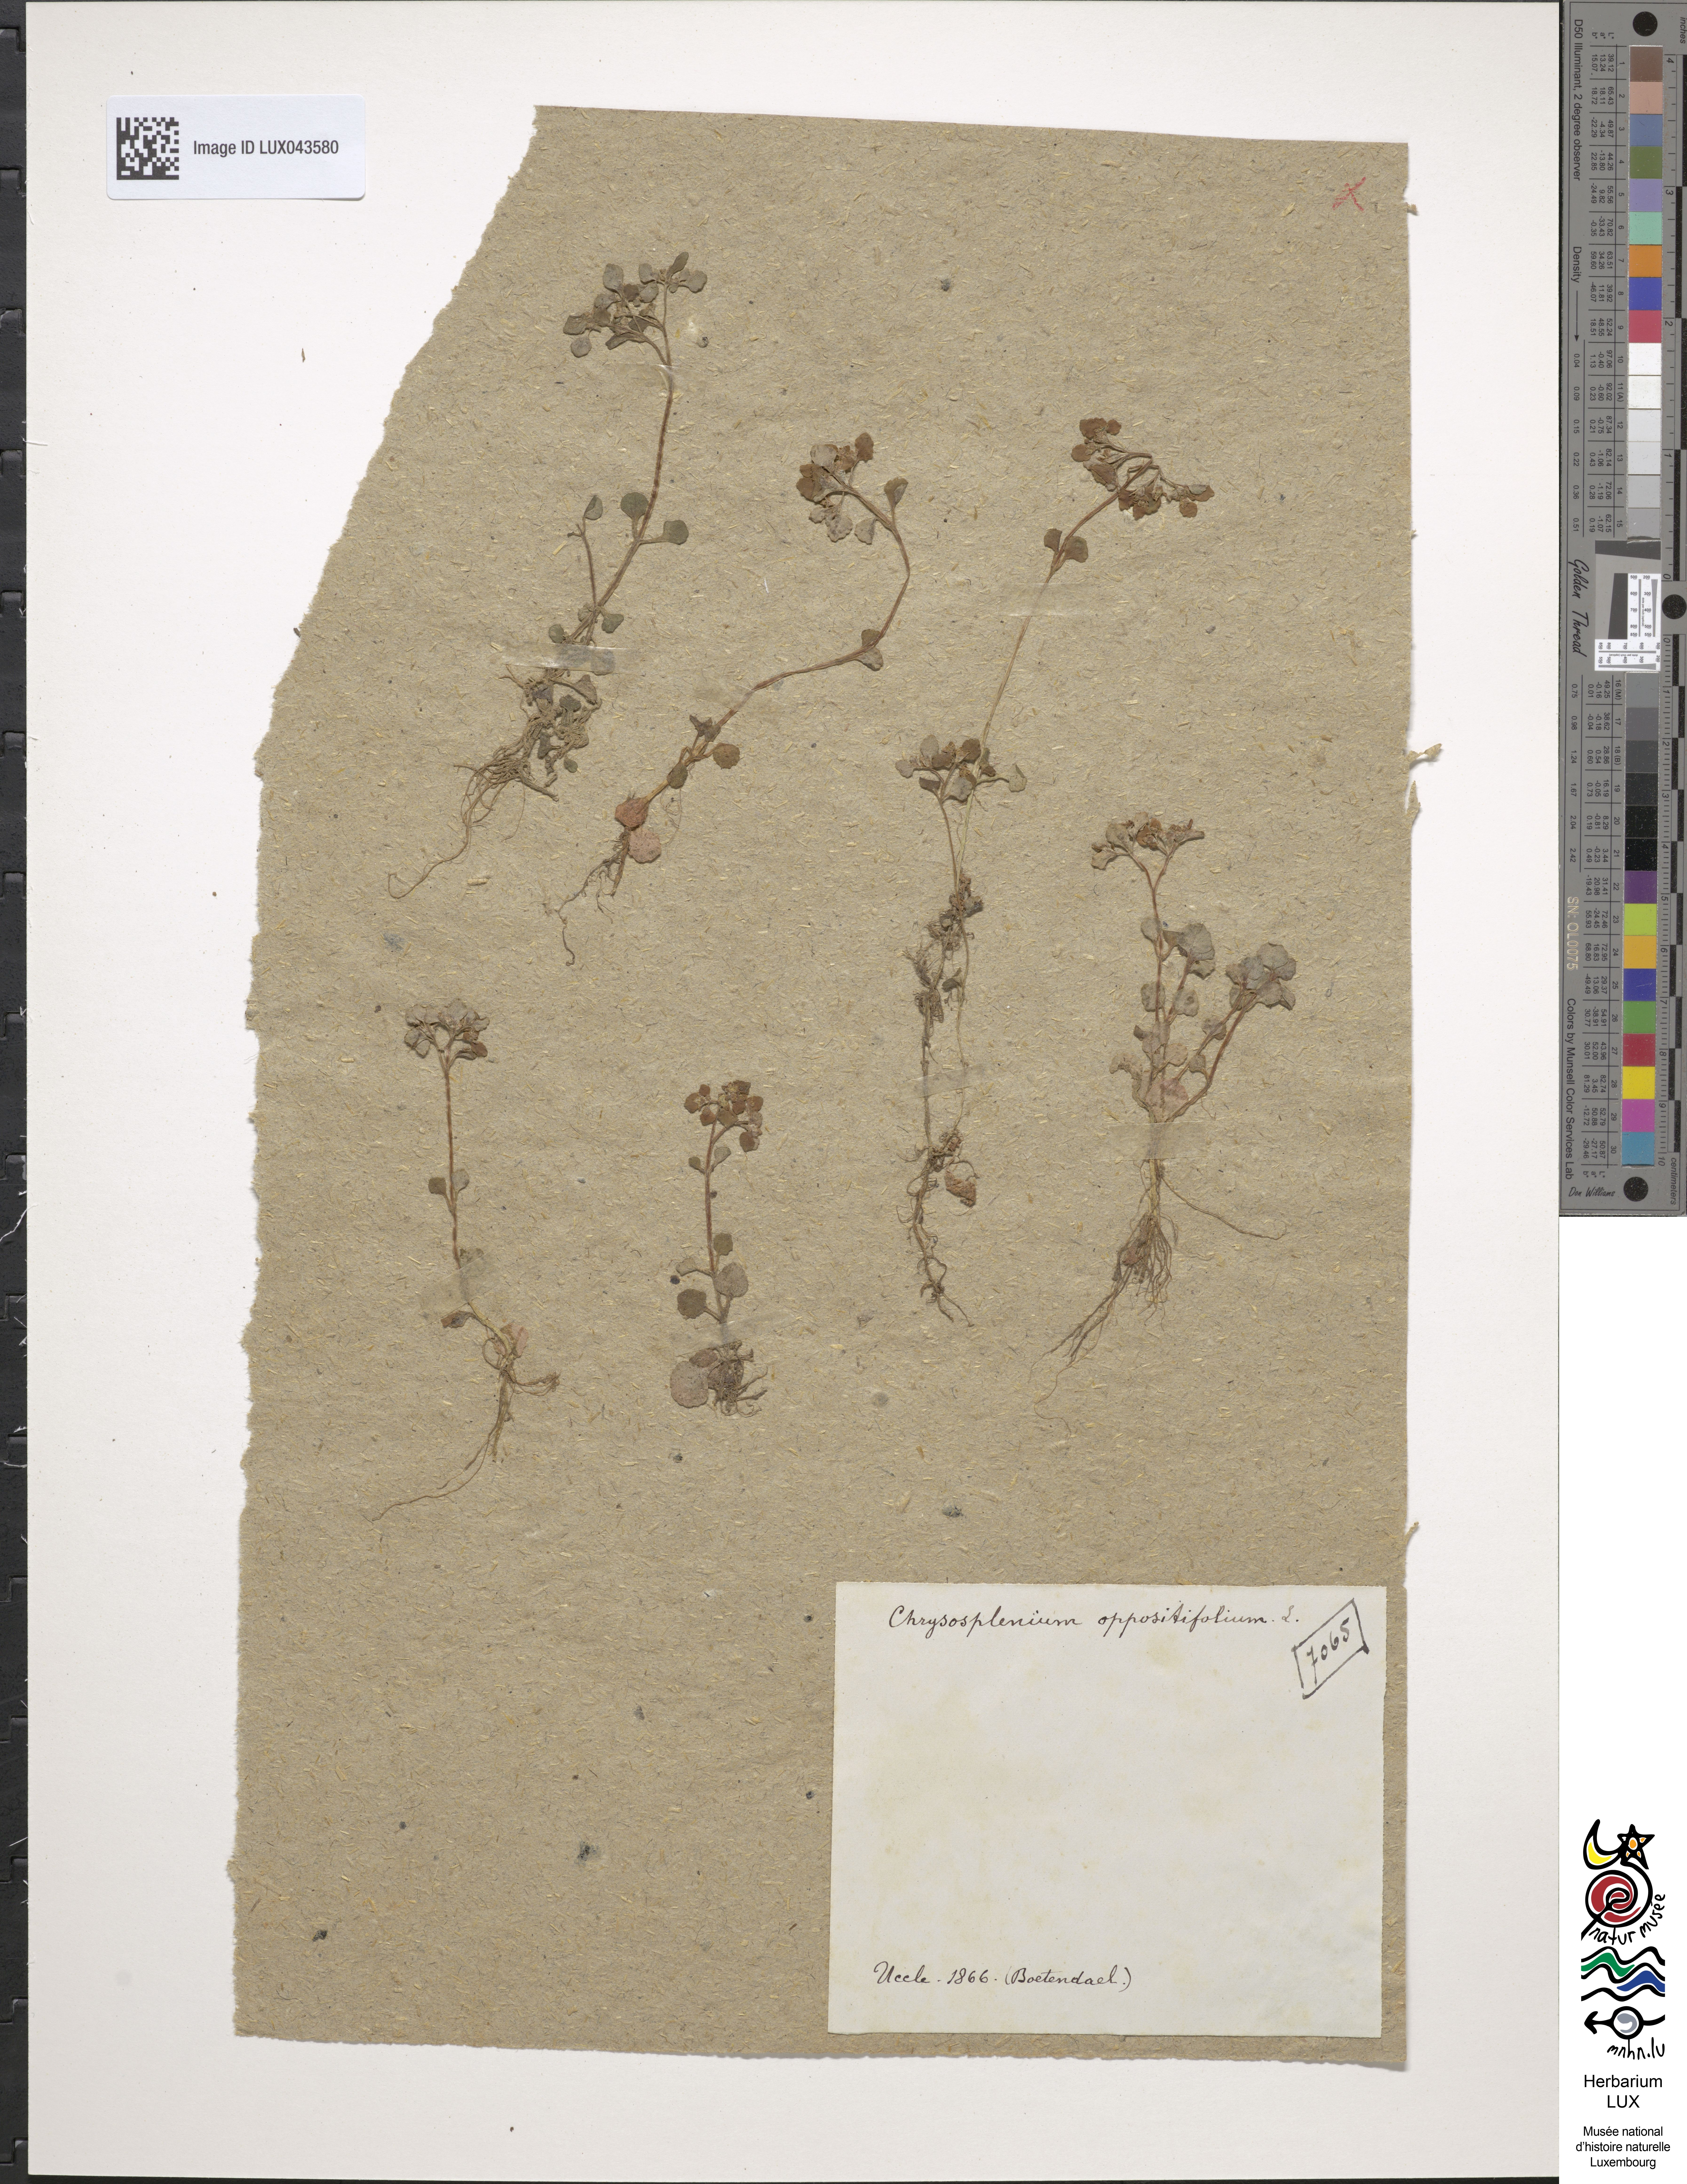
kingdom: Plantae
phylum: Tracheophyta
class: Magnoliopsida
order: Saxifragales
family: Saxifragaceae
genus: Chrysosplenium
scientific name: Chrysosplenium oppositifolium
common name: Opposite-leaved golden-saxifrage
